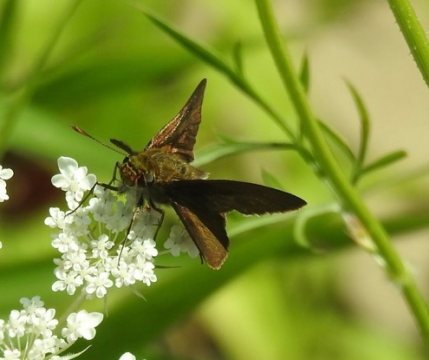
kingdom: Animalia
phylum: Arthropoda
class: Insecta
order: Lepidoptera
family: Hesperiidae
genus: Euphyes
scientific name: Euphyes vestris
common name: Dun Skipper
